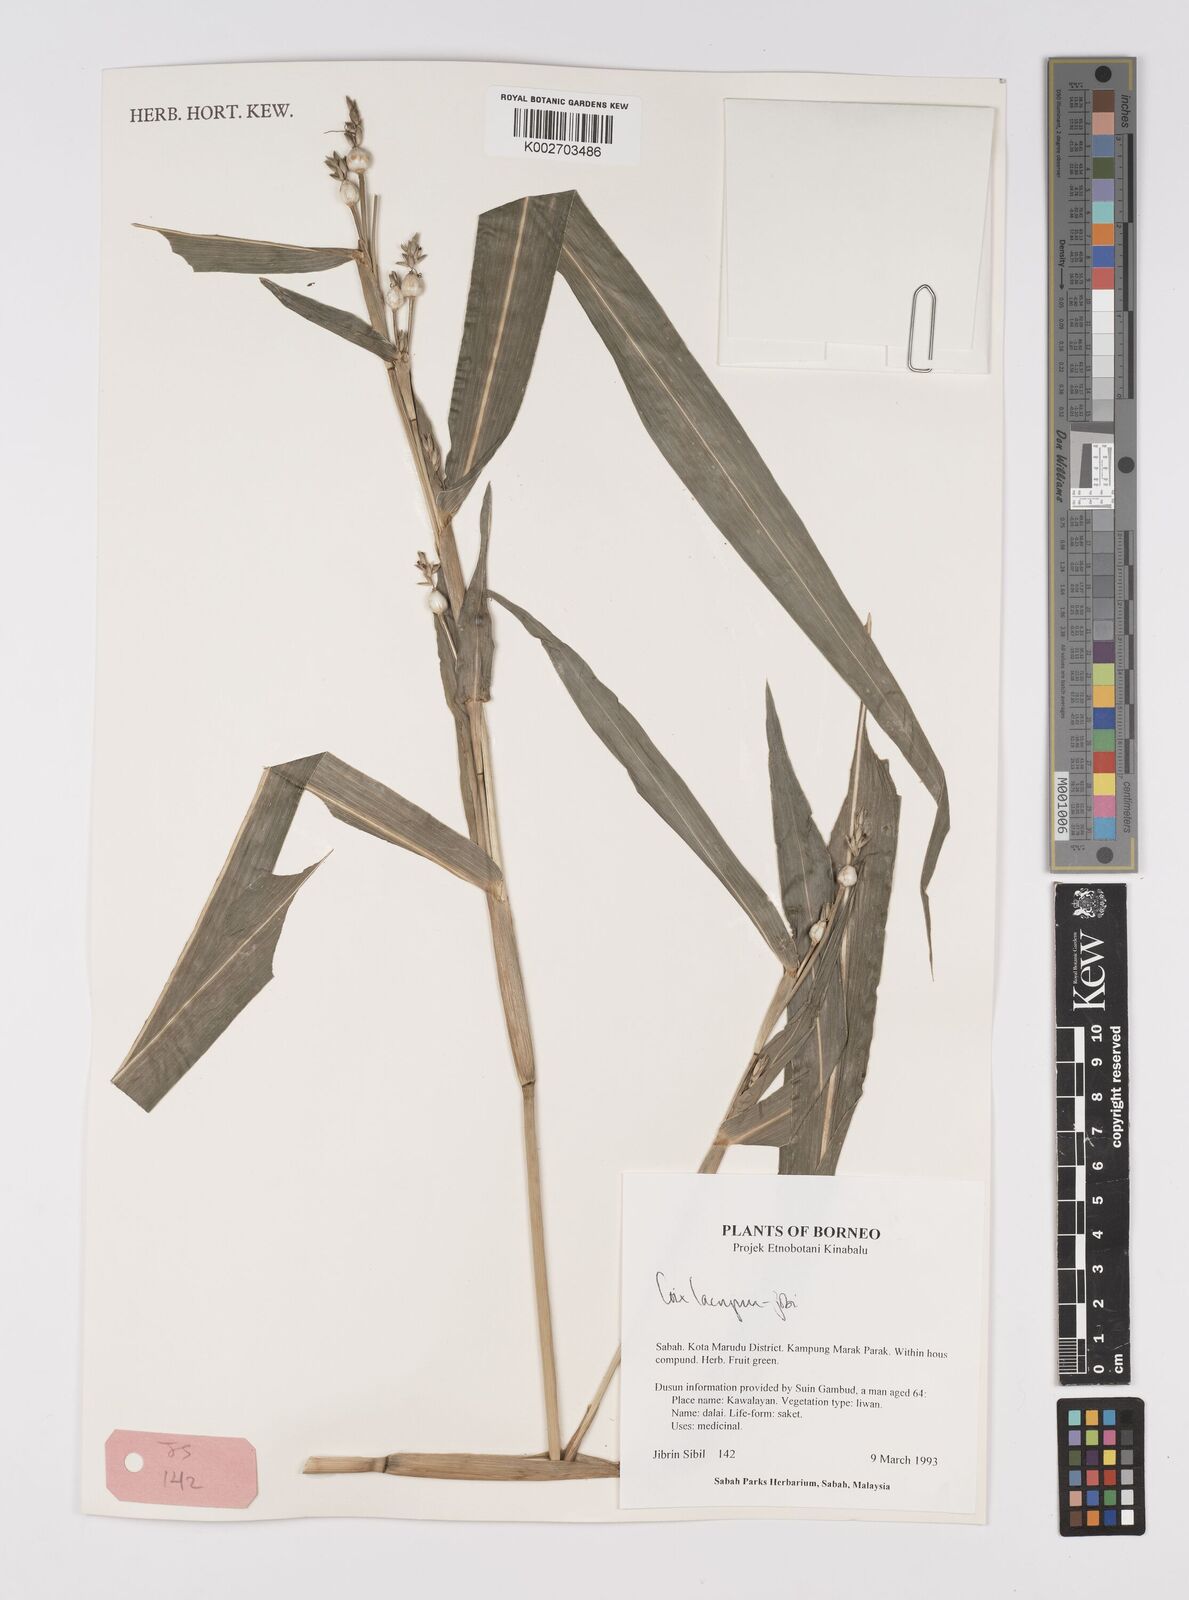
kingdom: Plantae
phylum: Tracheophyta
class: Liliopsida
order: Poales
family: Poaceae
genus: Coix
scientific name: Coix lacryma-jobi
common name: Job's tears
